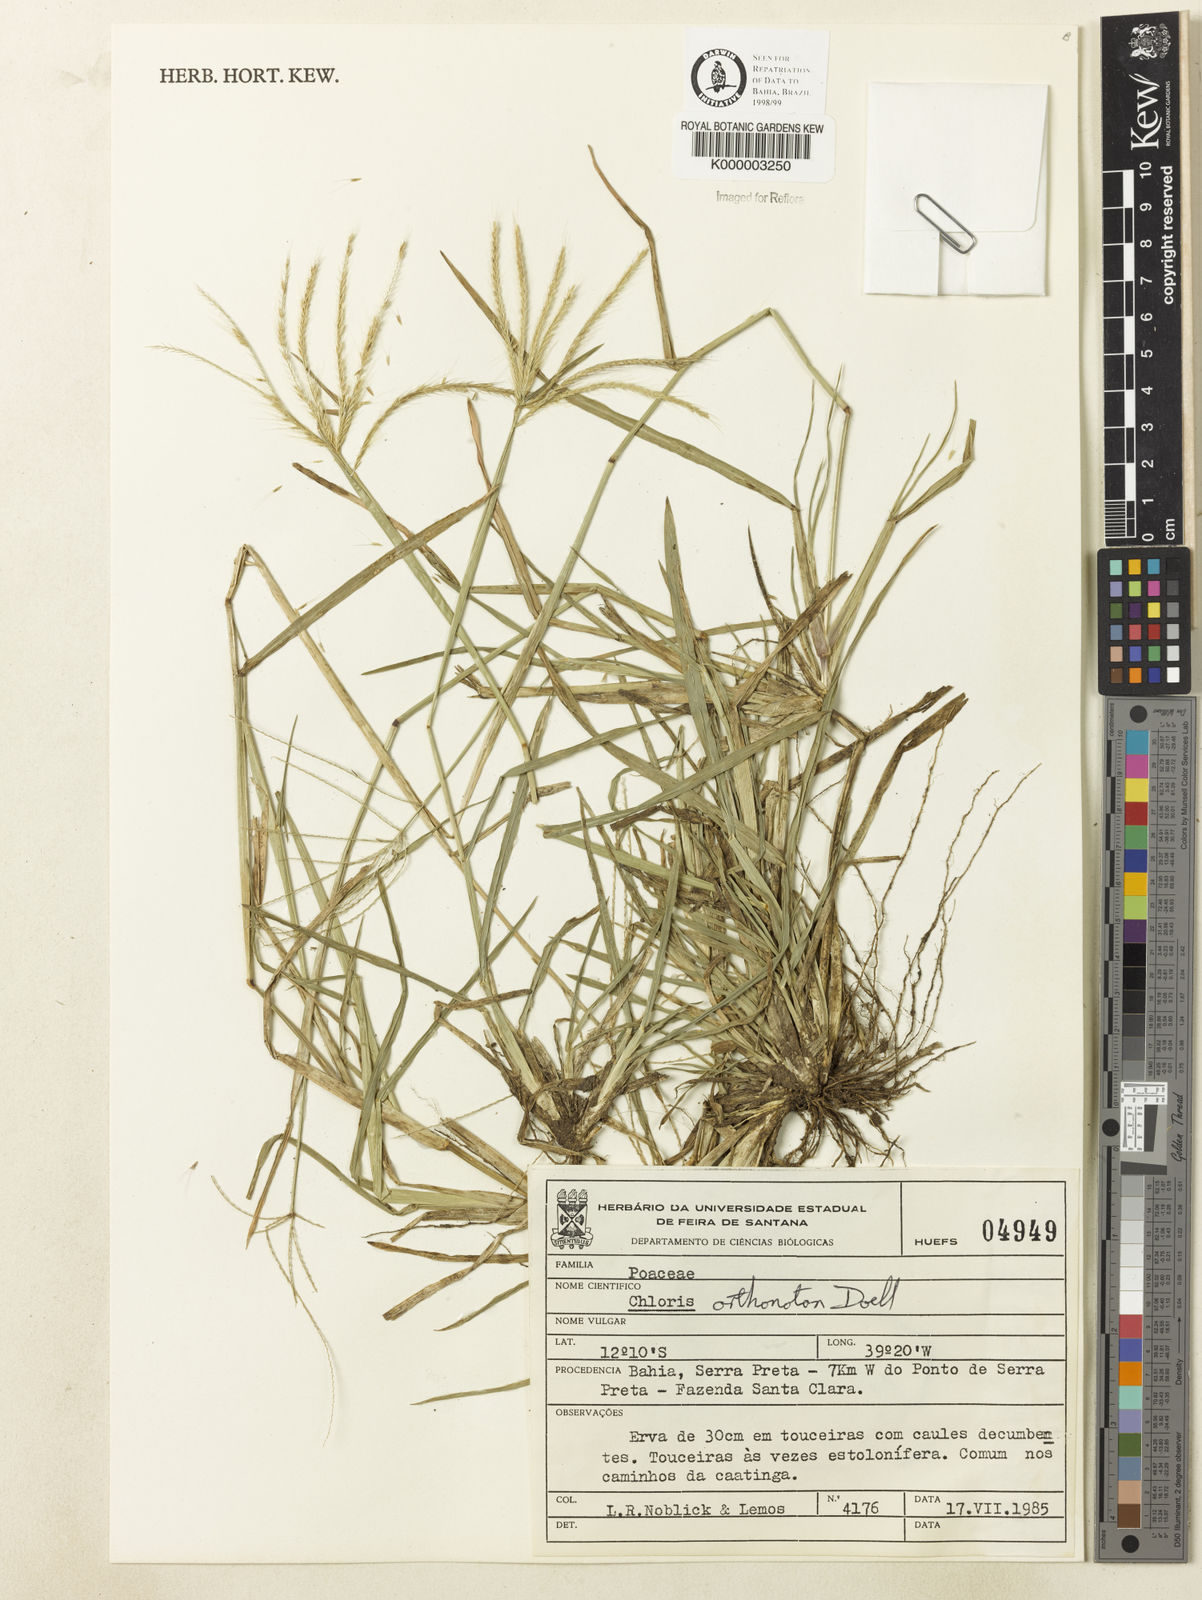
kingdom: Plantae
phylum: Tracheophyta
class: Liliopsida
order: Poales
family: Poaceae
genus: Chloris
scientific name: Chloris
